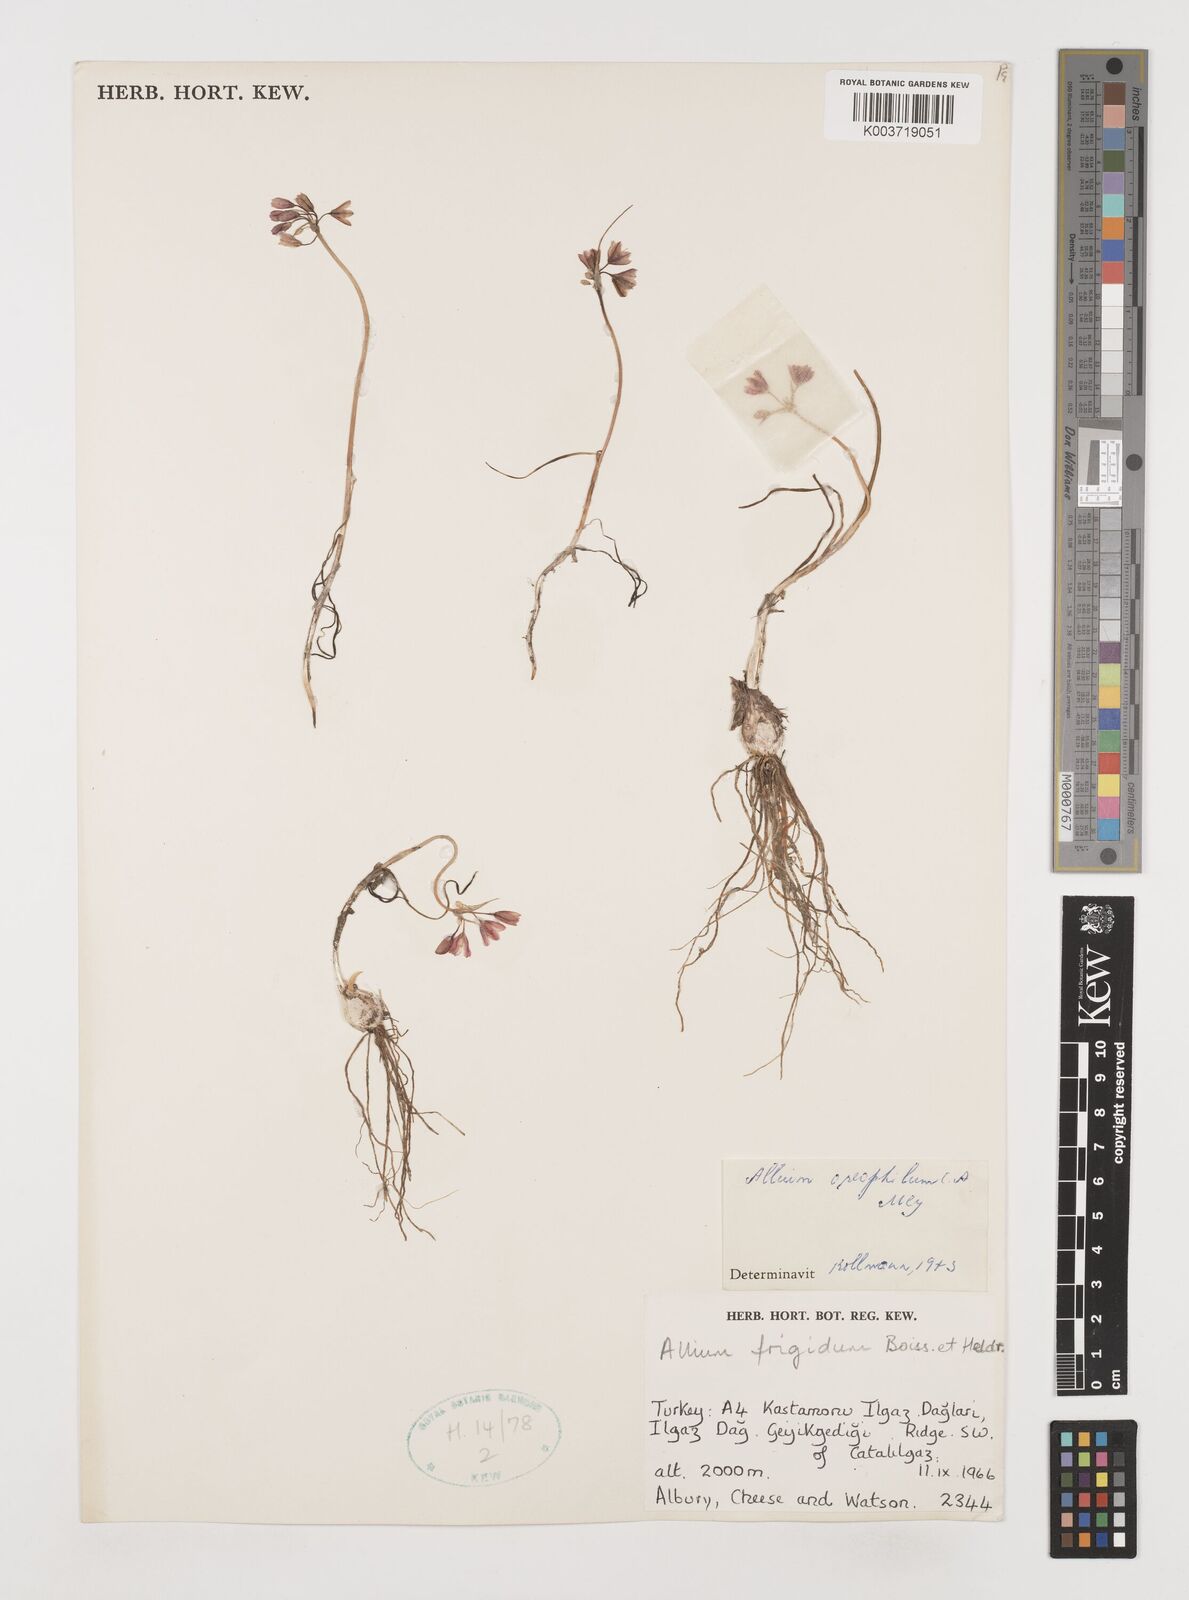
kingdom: Plantae
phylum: Tracheophyta
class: Liliopsida
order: Asparagales
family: Amaryllidaceae
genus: Allium
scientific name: Allium oreophilum
